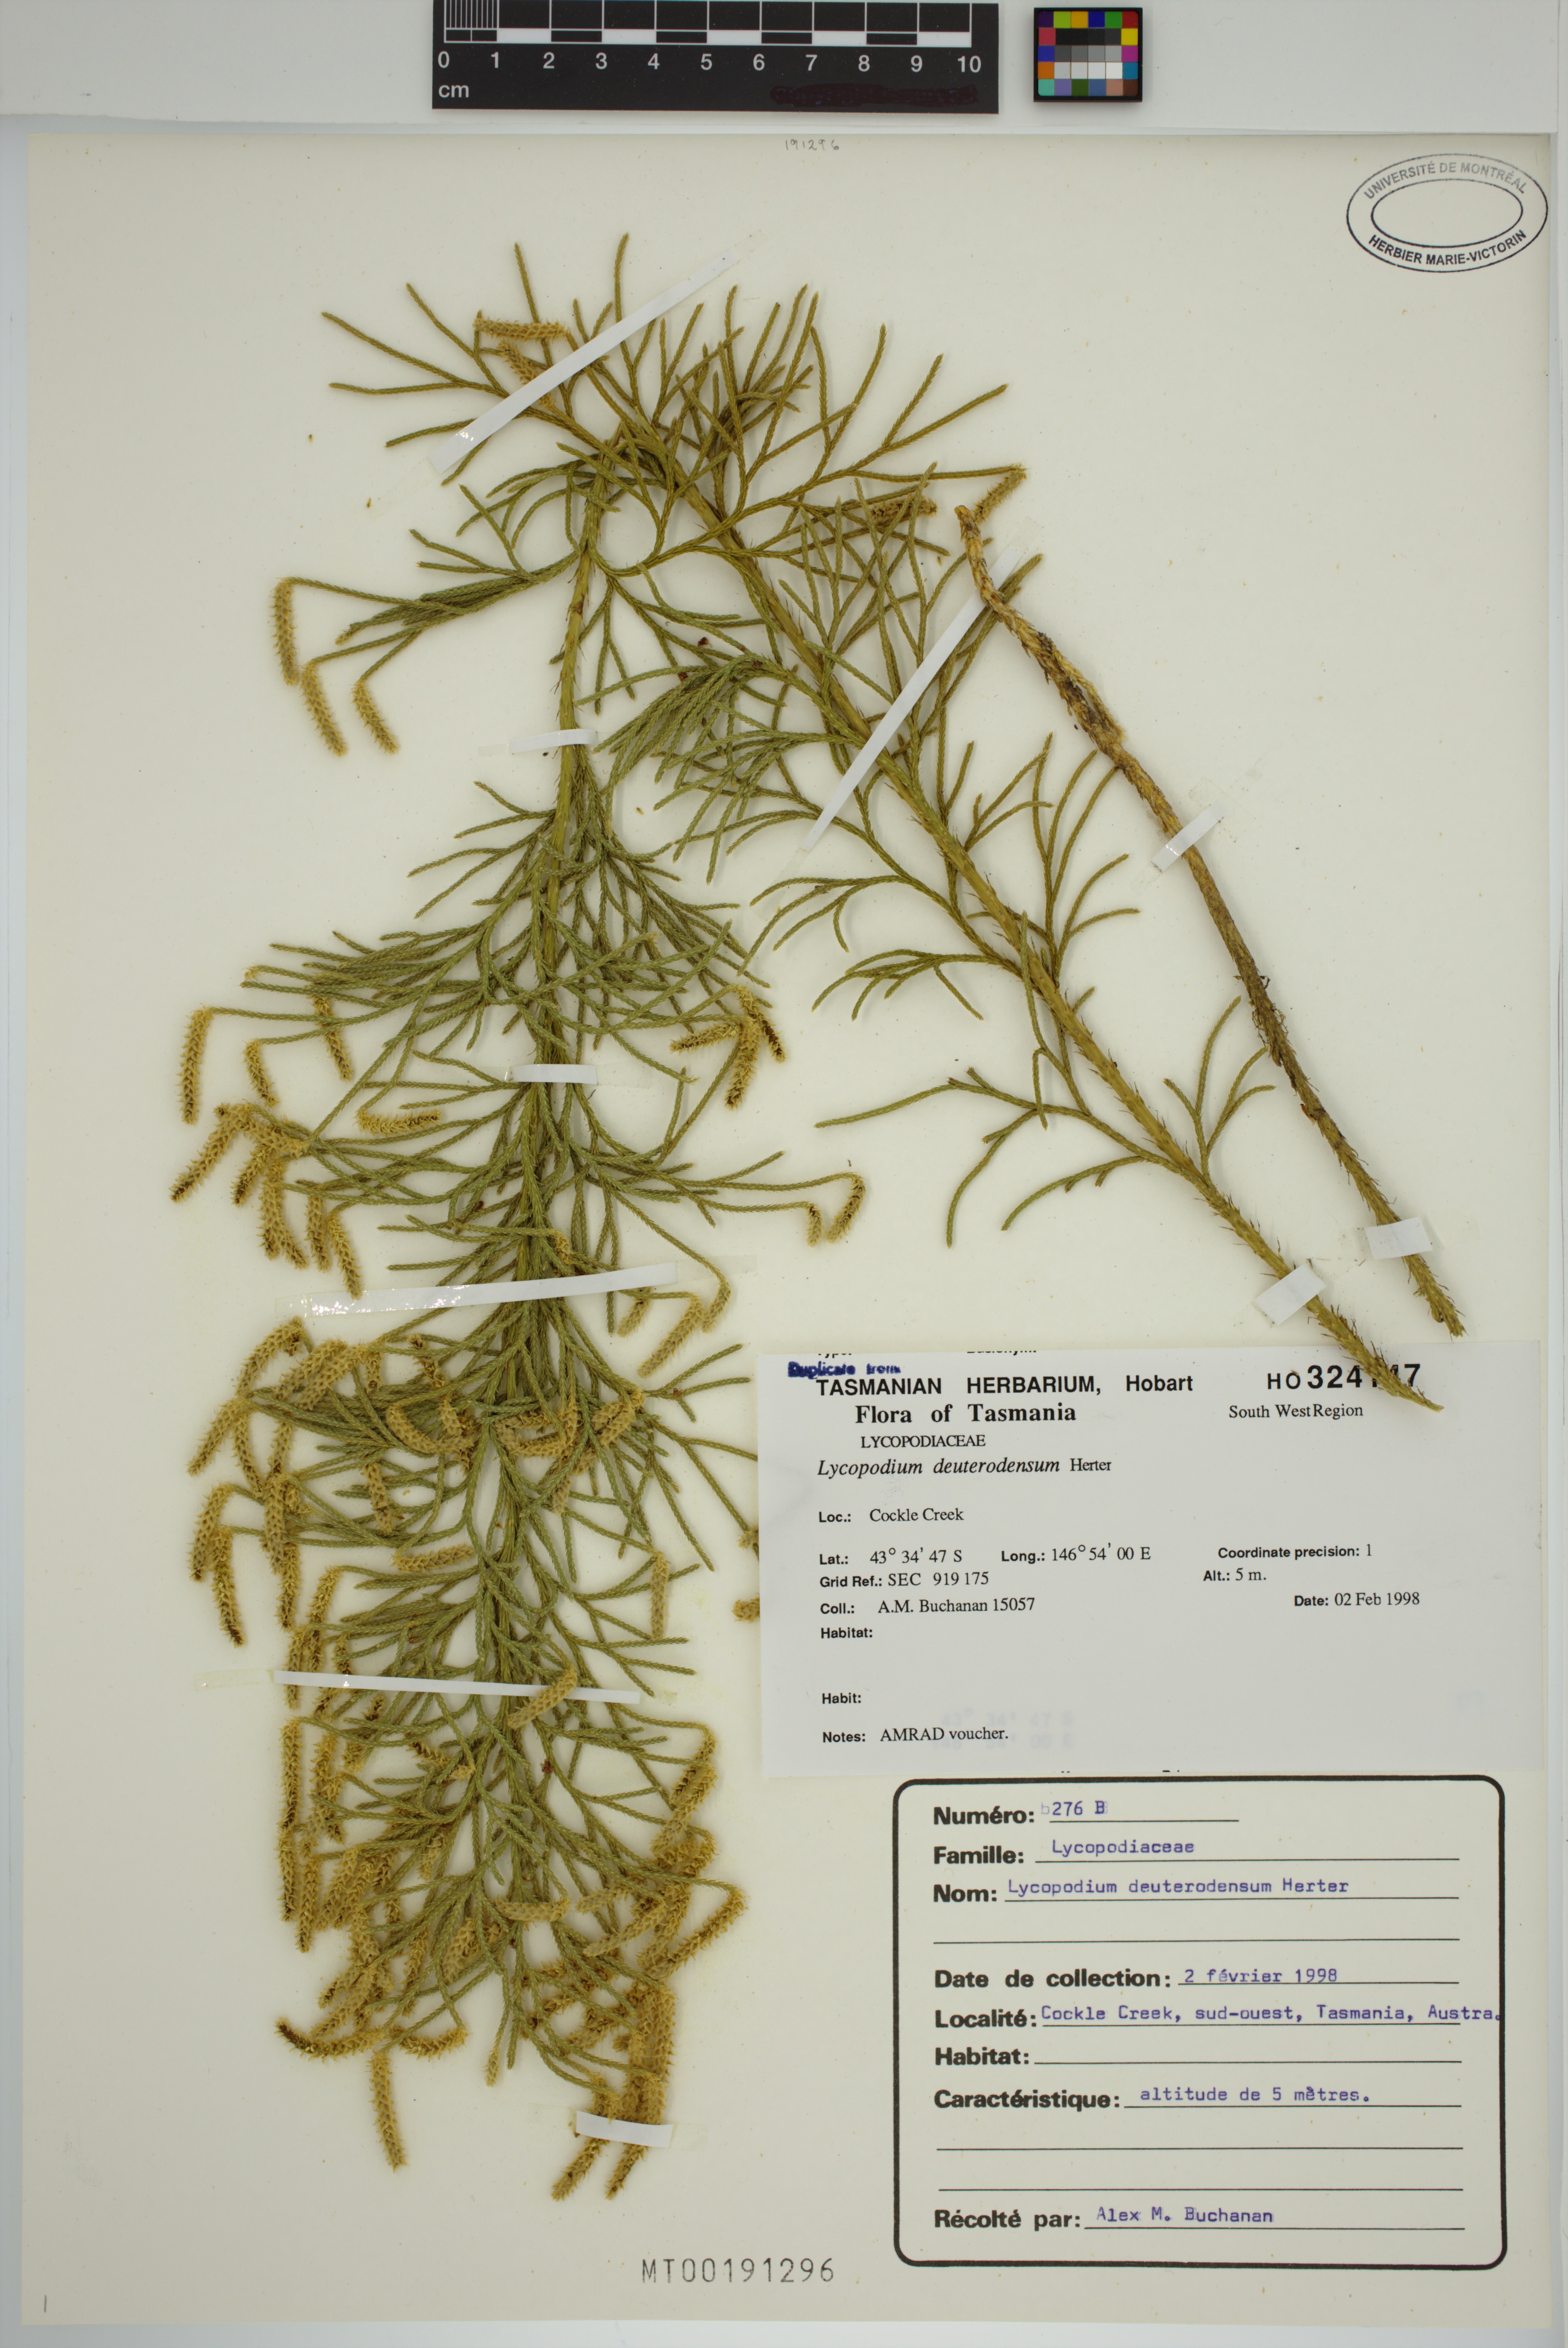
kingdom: Plantae
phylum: Tracheophyta
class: Lycopodiopsida
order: Lycopodiales
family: Lycopodiaceae
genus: Pseudolycopodium
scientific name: Pseudolycopodium densum
